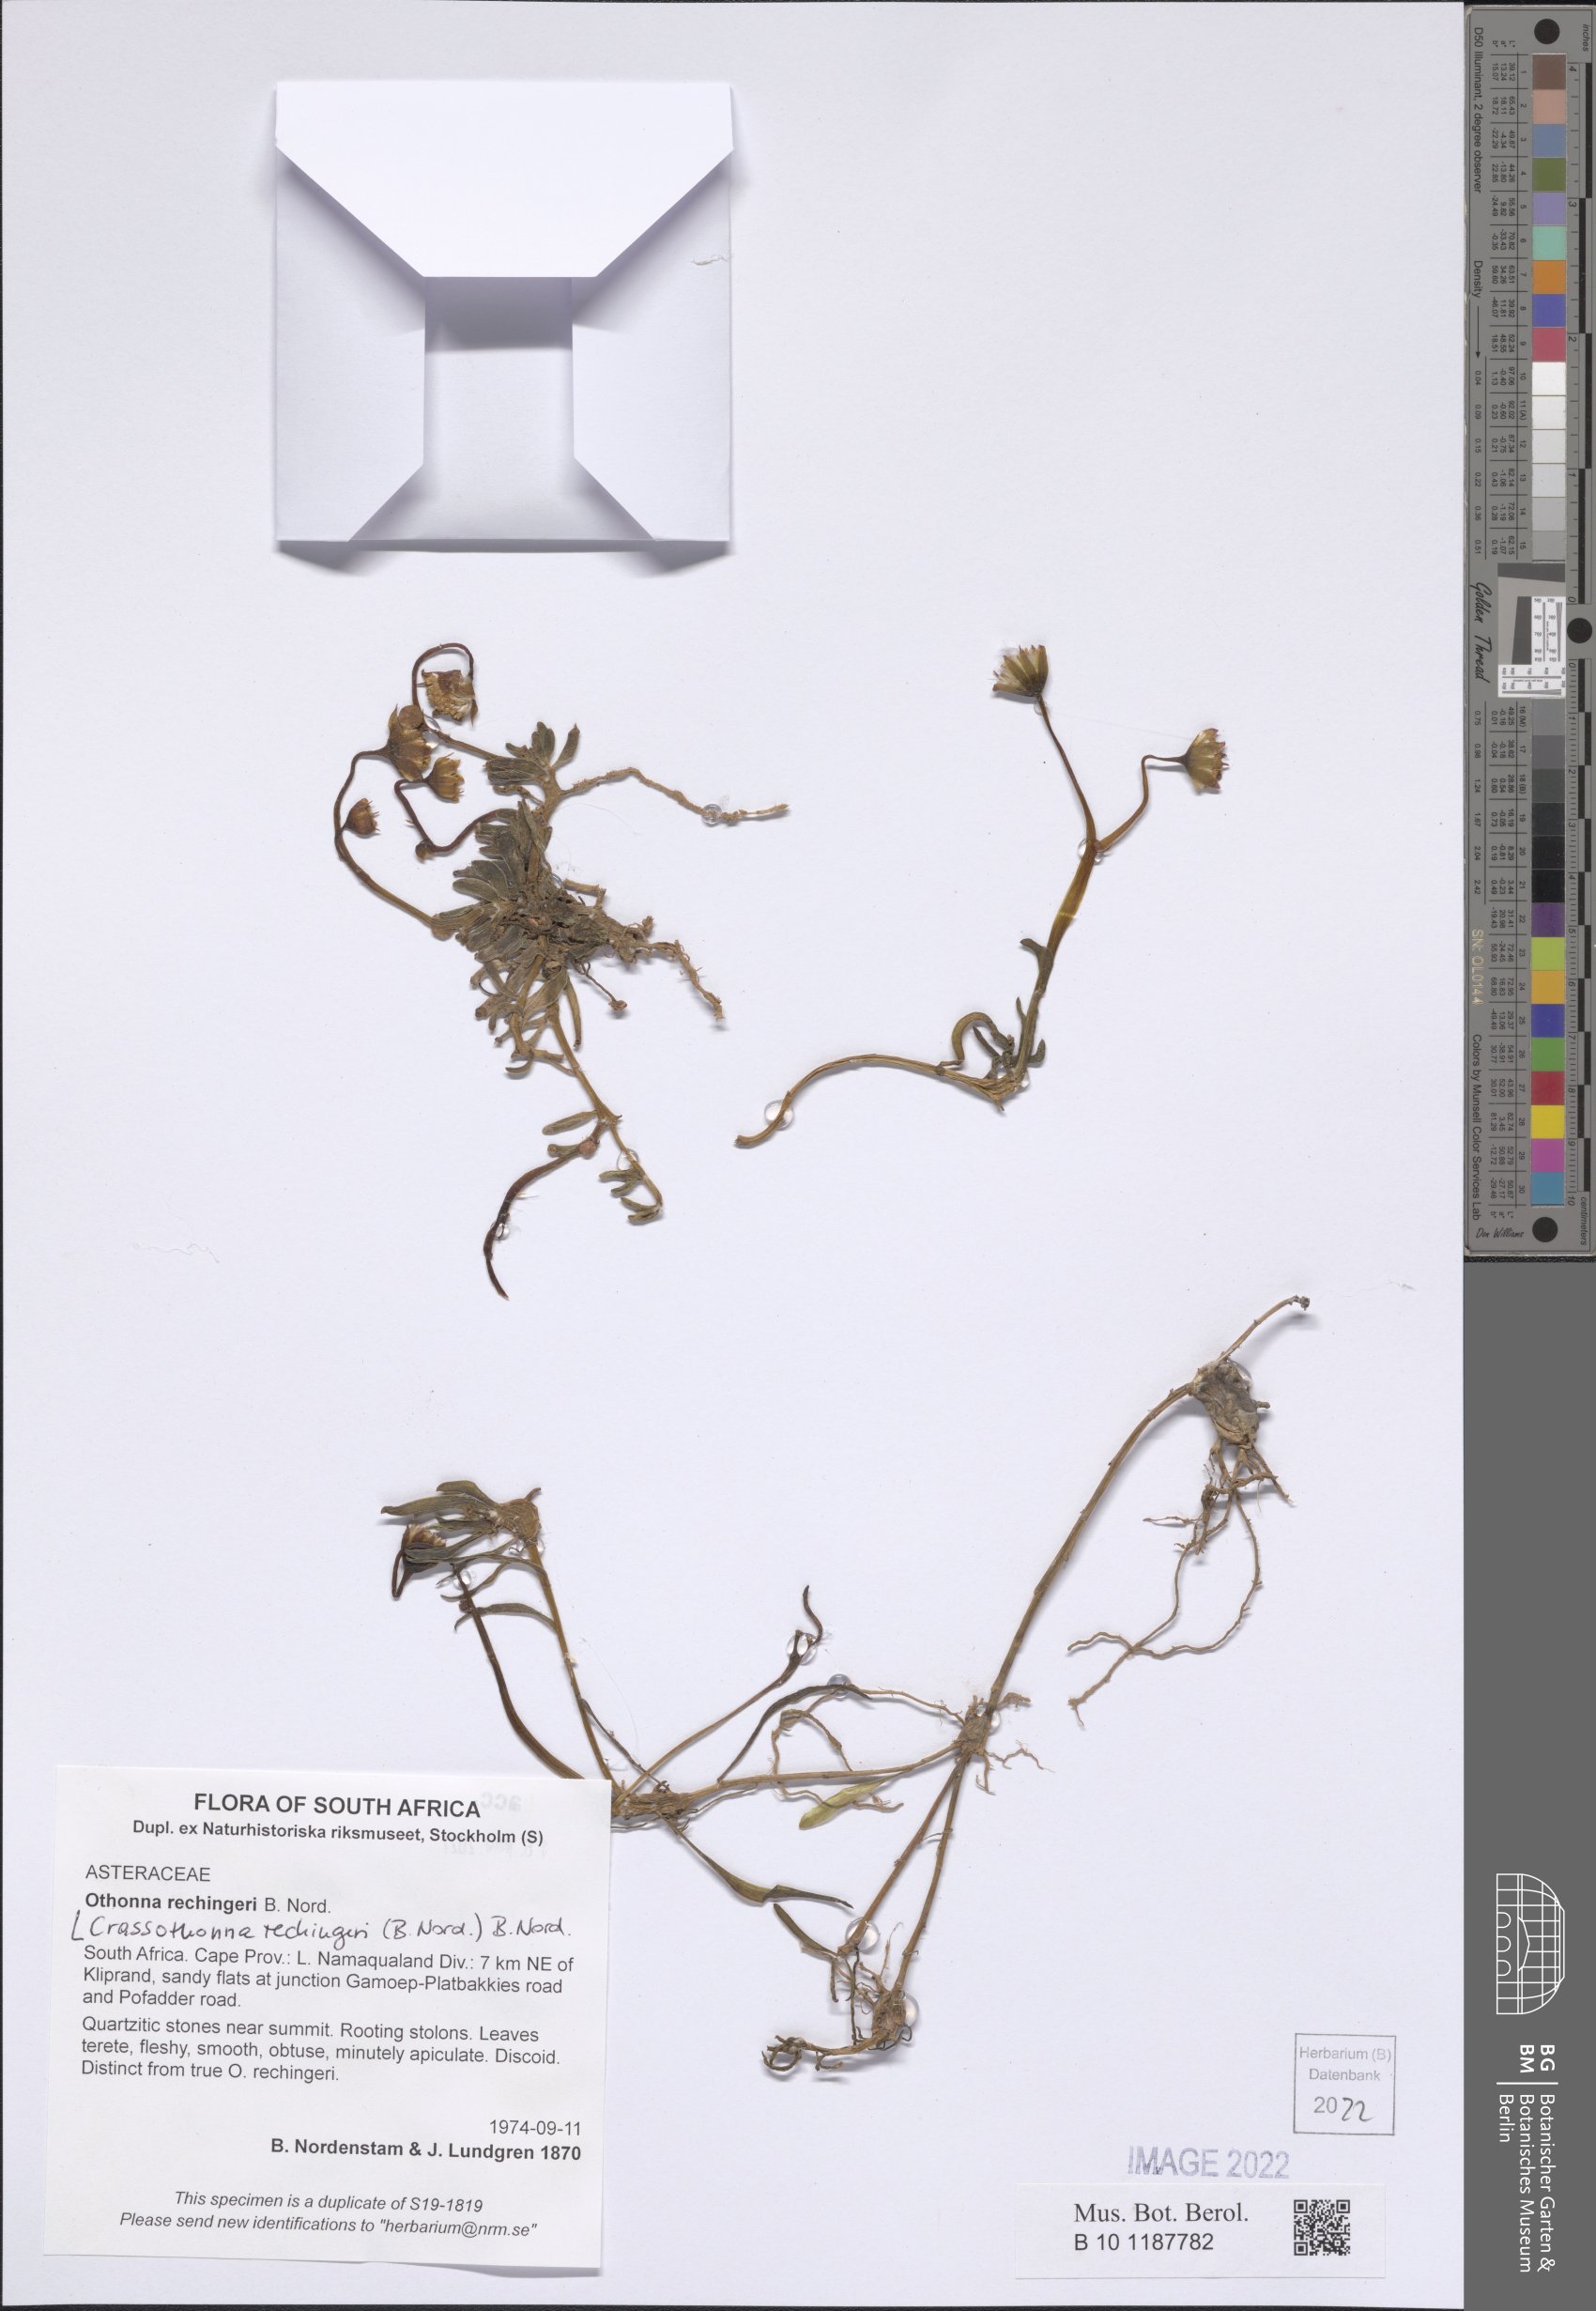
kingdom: Plantae
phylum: Tracheophyta
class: Magnoliopsida
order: Asterales
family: Asteraceae
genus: Crassothonna
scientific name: Crassothonna rechingeri
